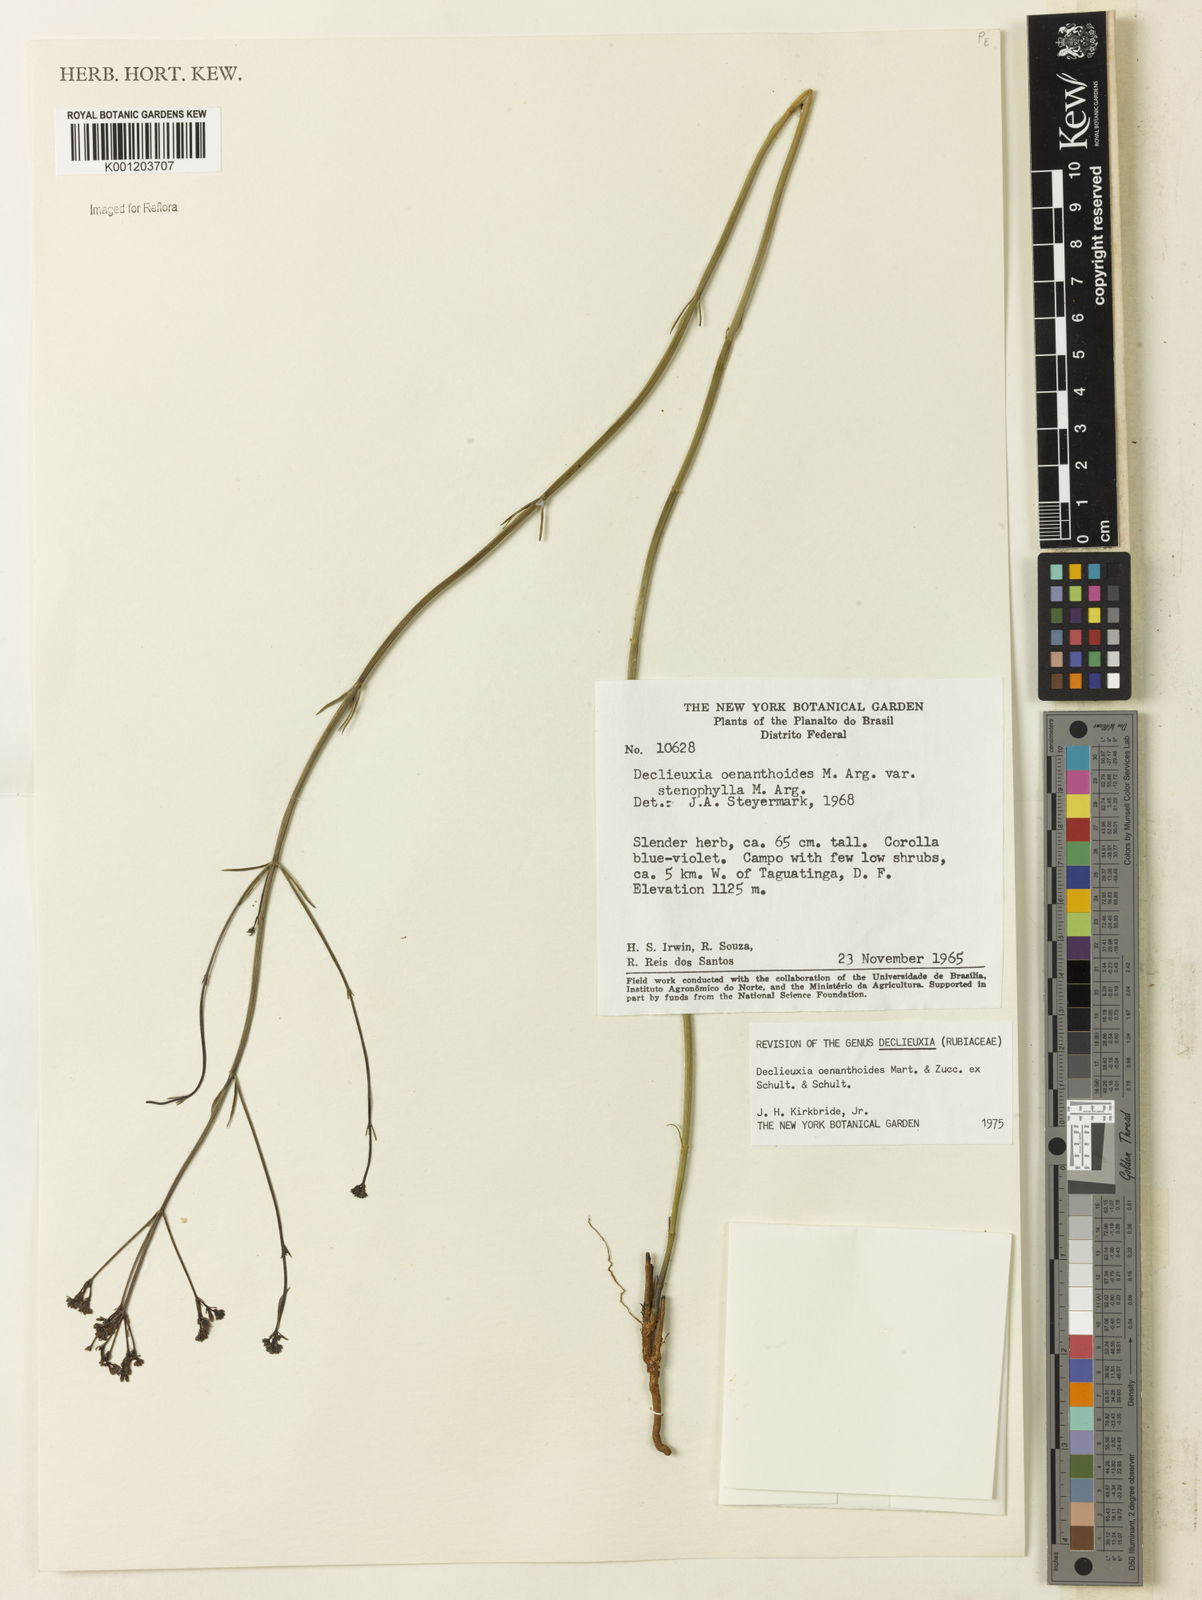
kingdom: Plantae
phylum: Tracheophyta
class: Magnoliopsida
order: Gentianales
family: Rubiaceae
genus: Declieuxia
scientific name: Declieuxia
